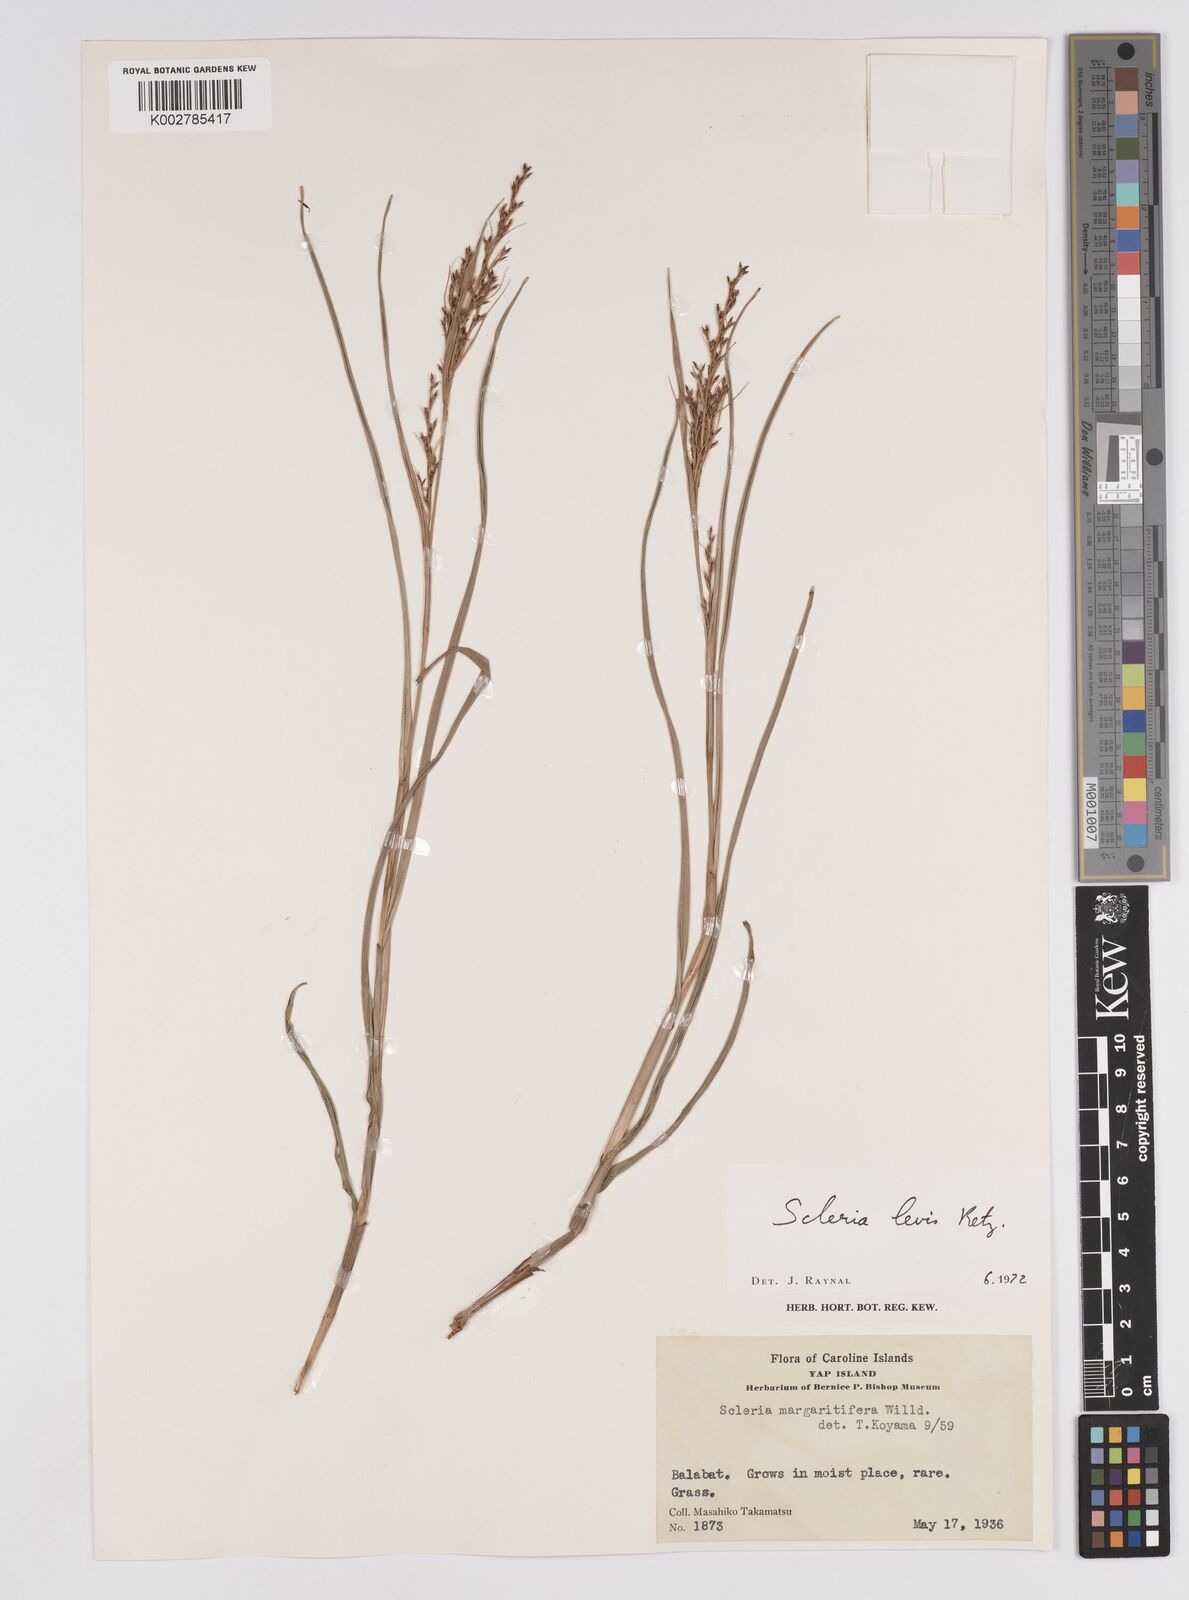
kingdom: Plantae
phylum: Tracheophyta
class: Liliopsida
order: Poales
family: Cyperaceae
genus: Scleria
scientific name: Scleria levis
